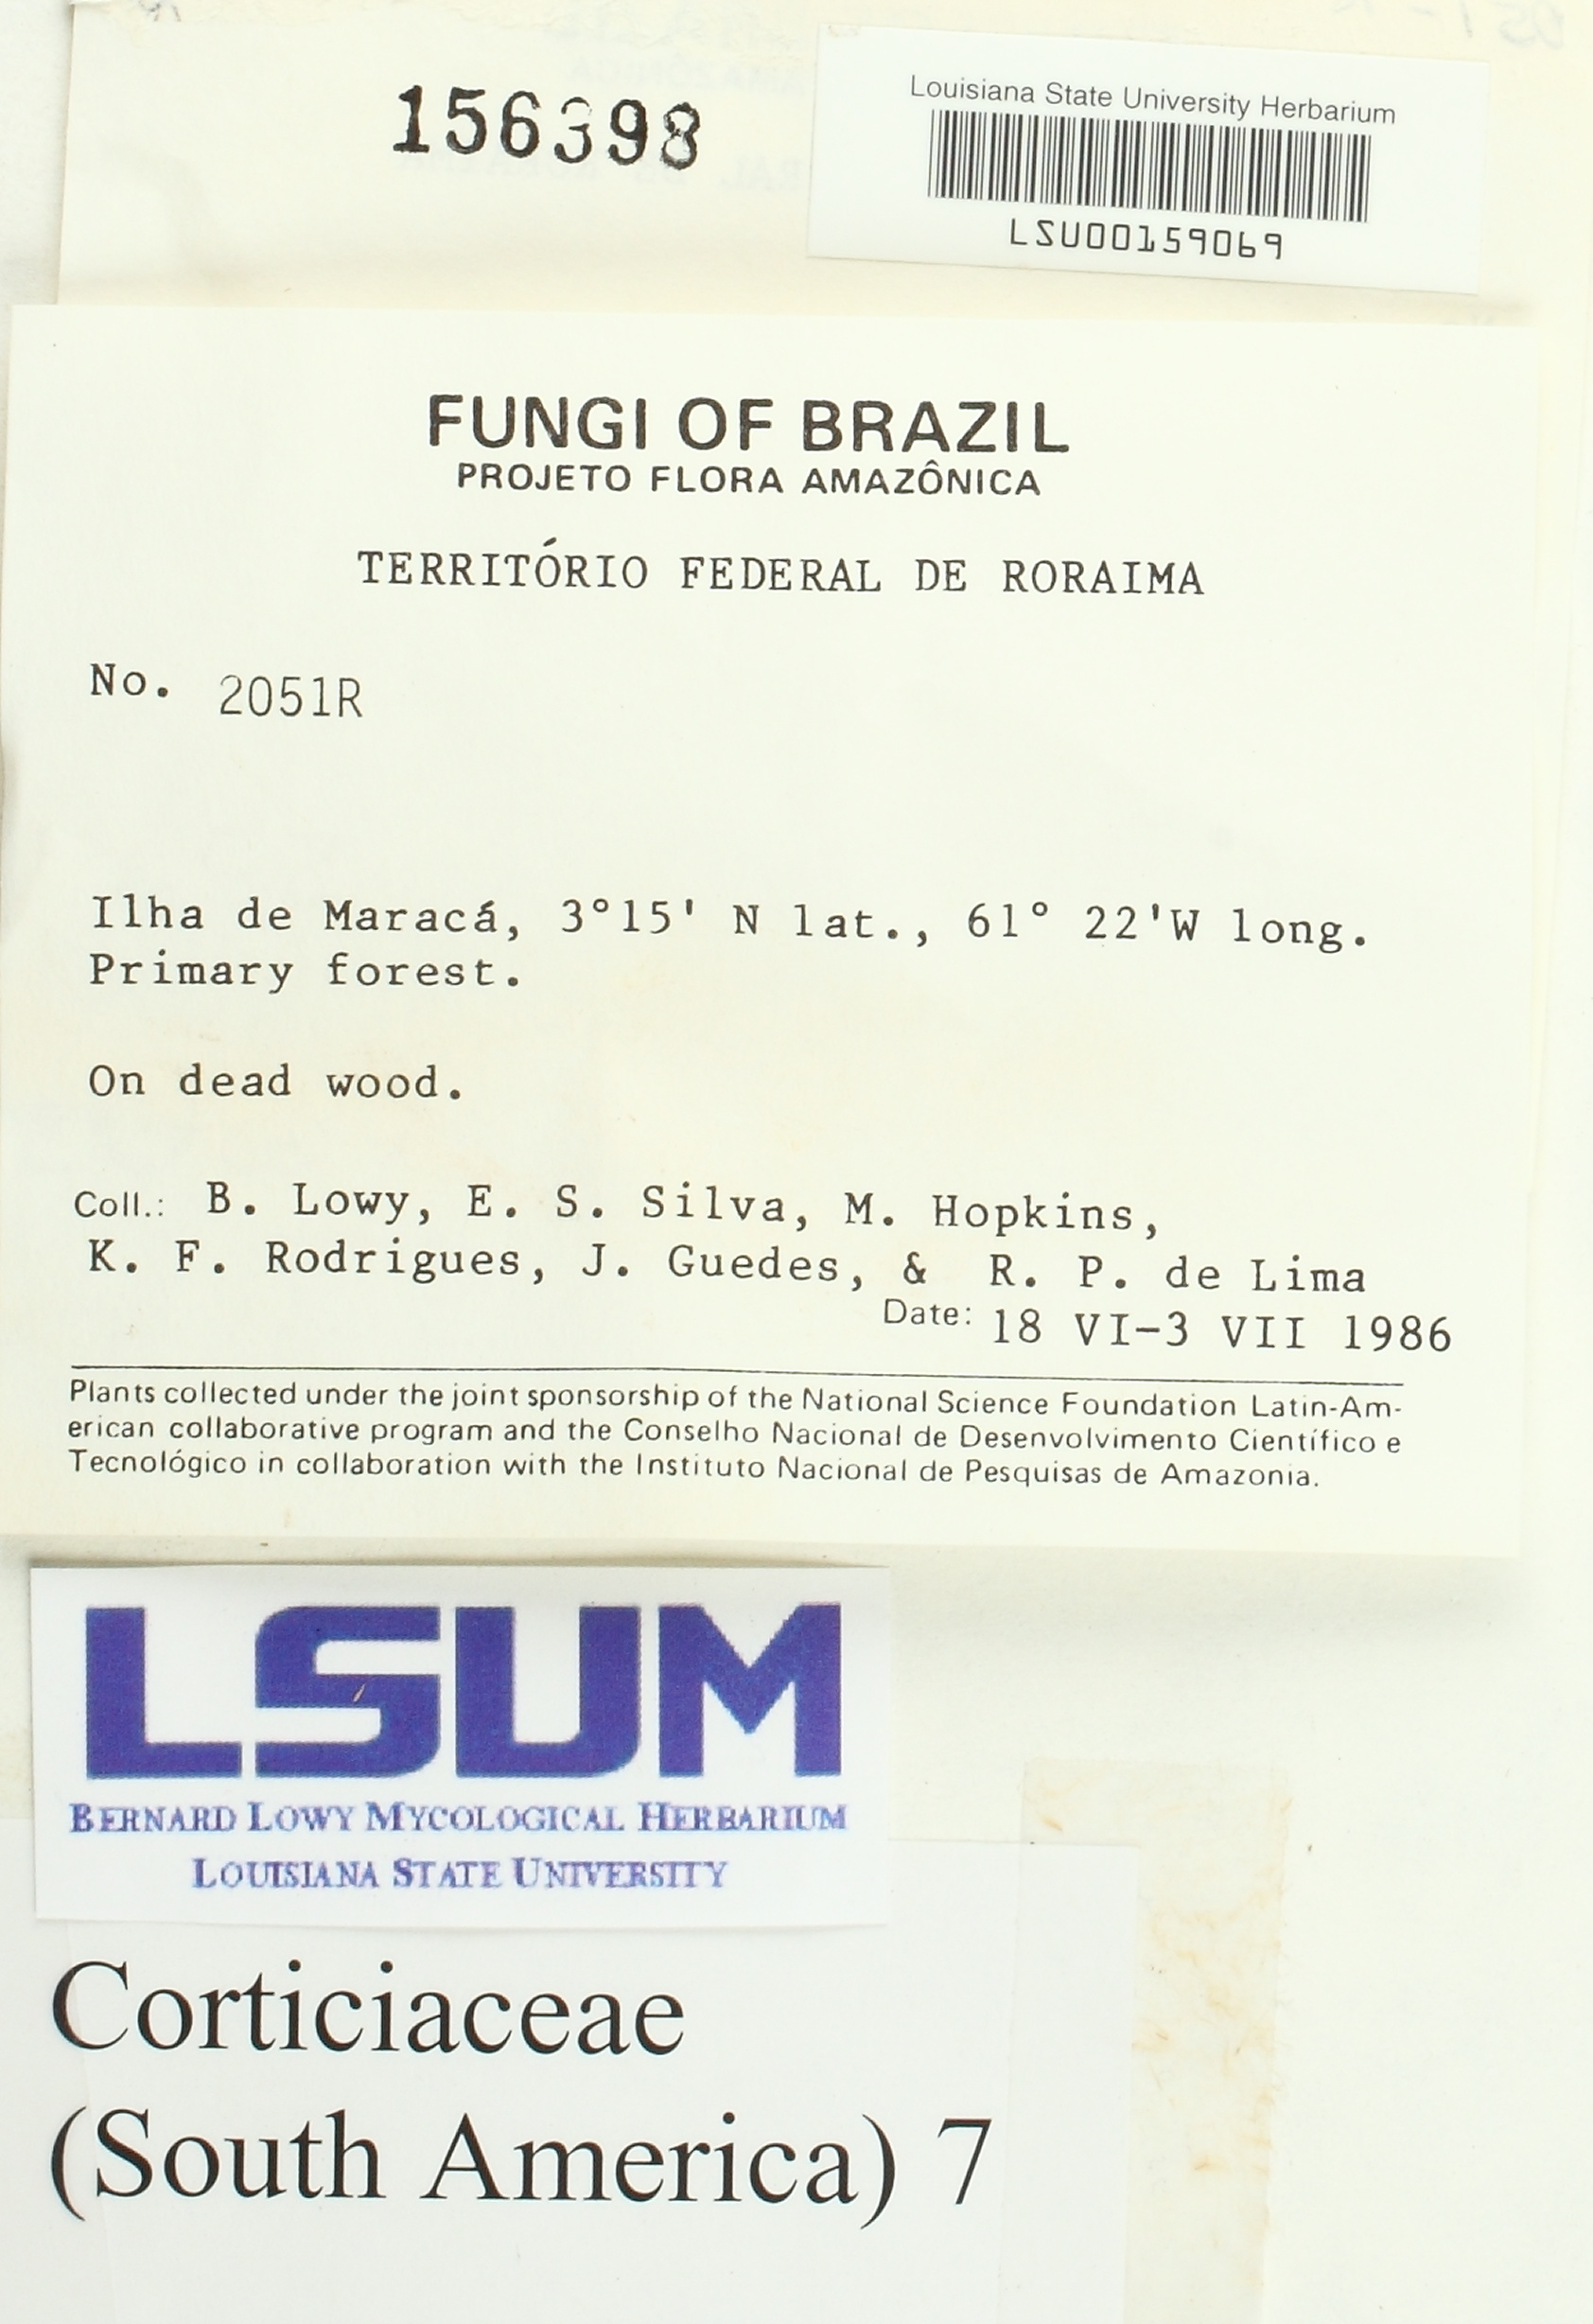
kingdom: Fungi
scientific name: Fungi
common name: Fungi
